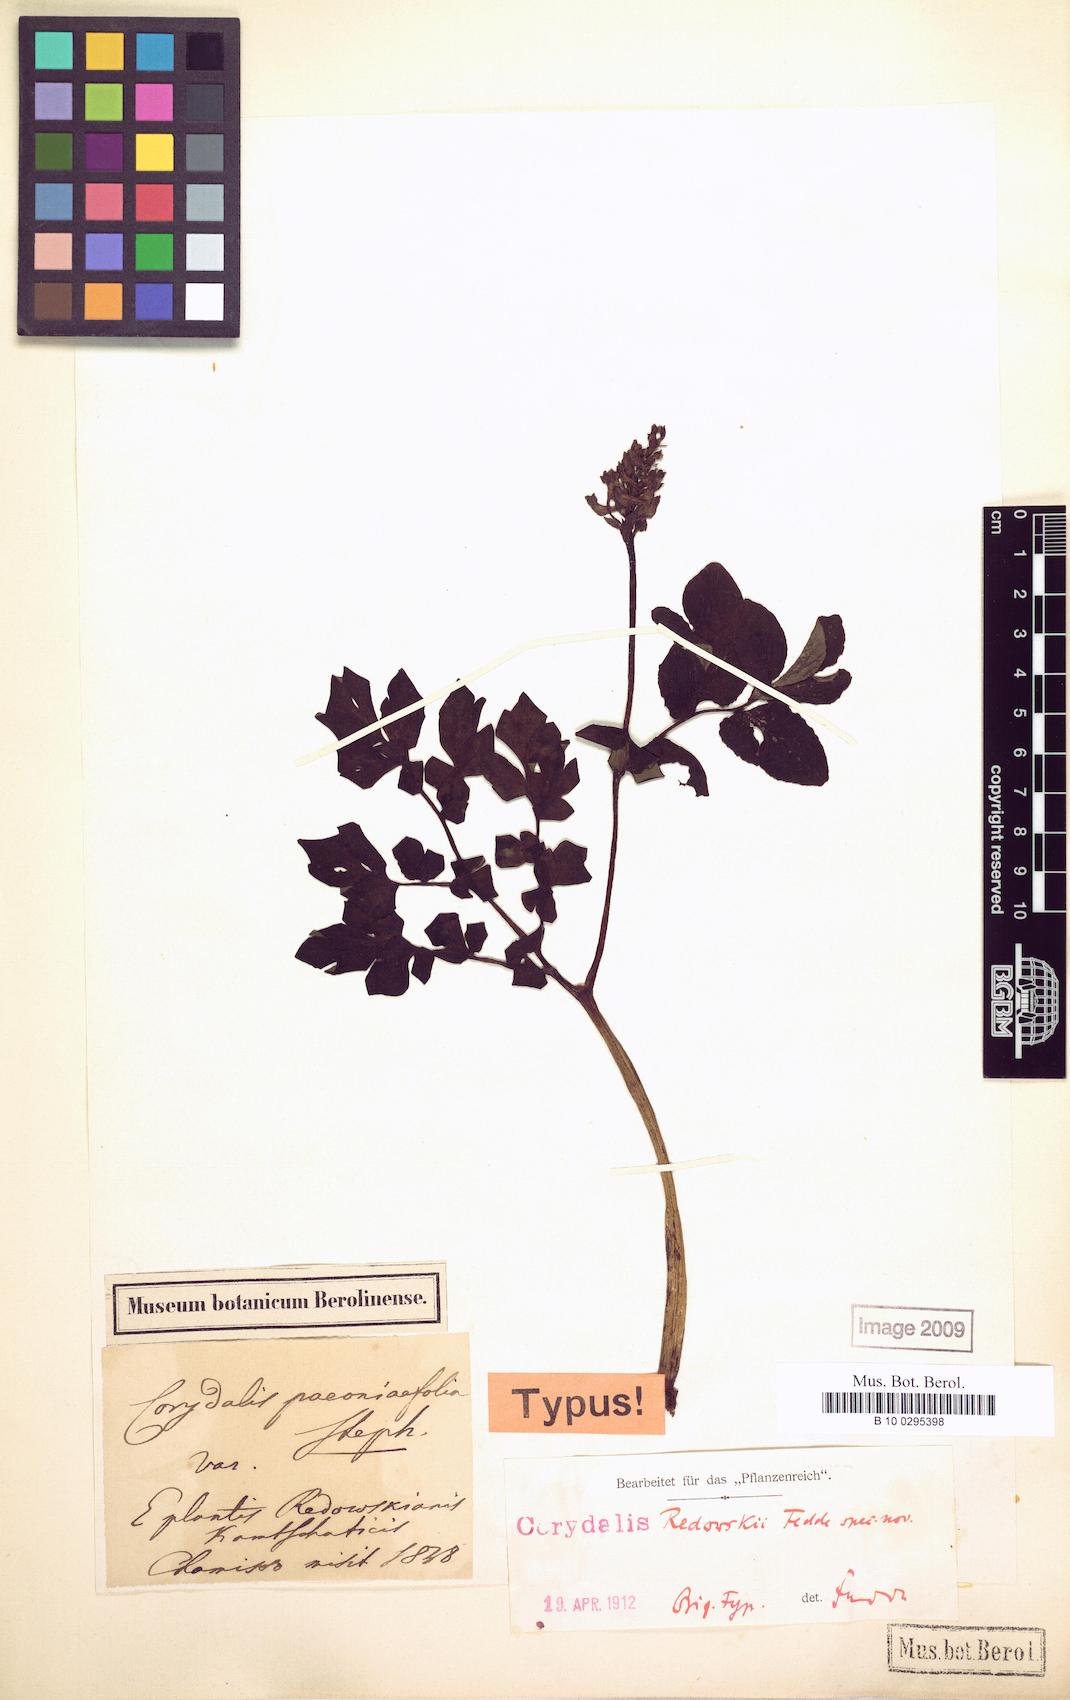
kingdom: Plantae
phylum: Tracheophyta
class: Magnoliopsida
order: Ranunculales
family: Papaveraceae
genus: Corydalis
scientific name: Corydalis paeoniifolia
